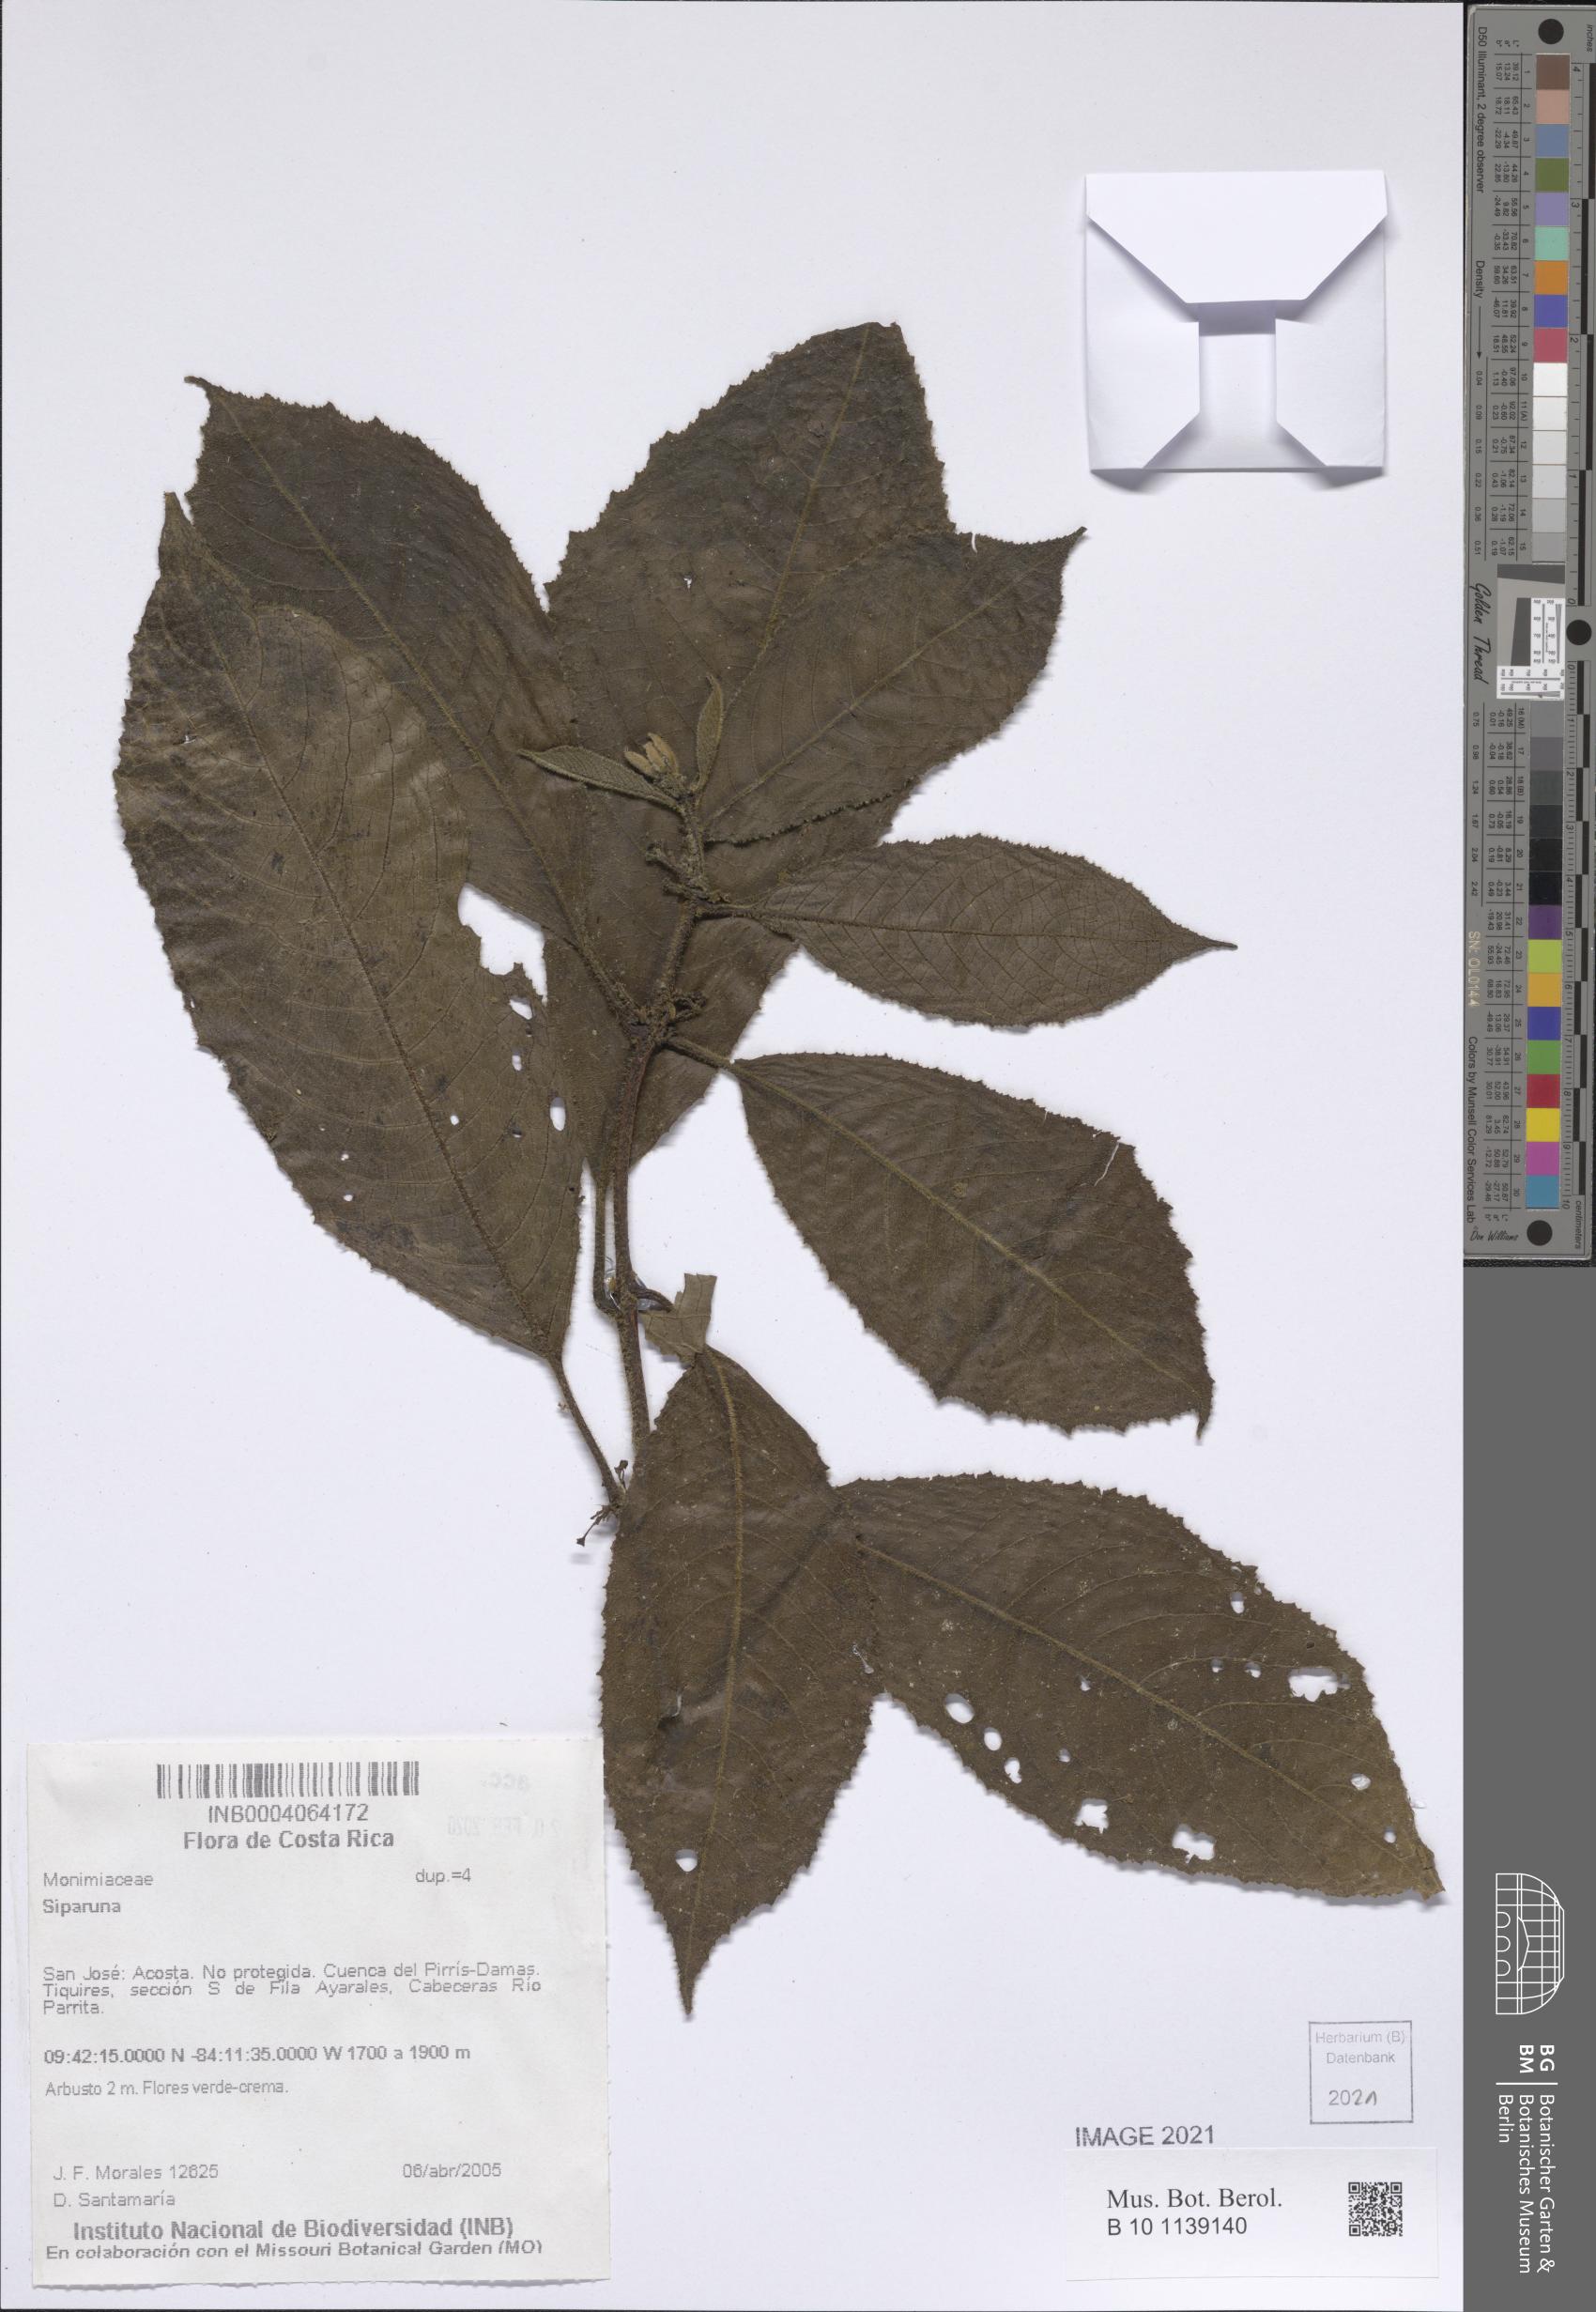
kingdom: Plantae
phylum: Tracheophyta
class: Magnoliopsida
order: Laurales
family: Siparunaceae
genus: Siparuna
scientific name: Siparuna
